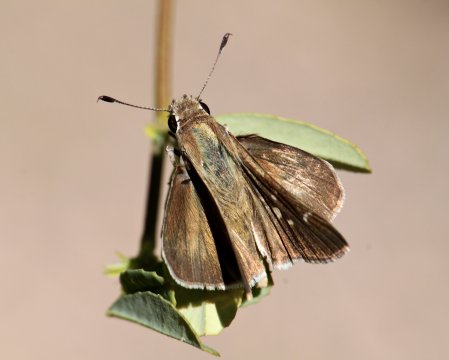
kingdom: Animalia
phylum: Arthropoda
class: Insecta
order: Lepidoptera
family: Hesperiidae
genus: Lerodea
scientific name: Lerodea eufala
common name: Eufala Skipper
